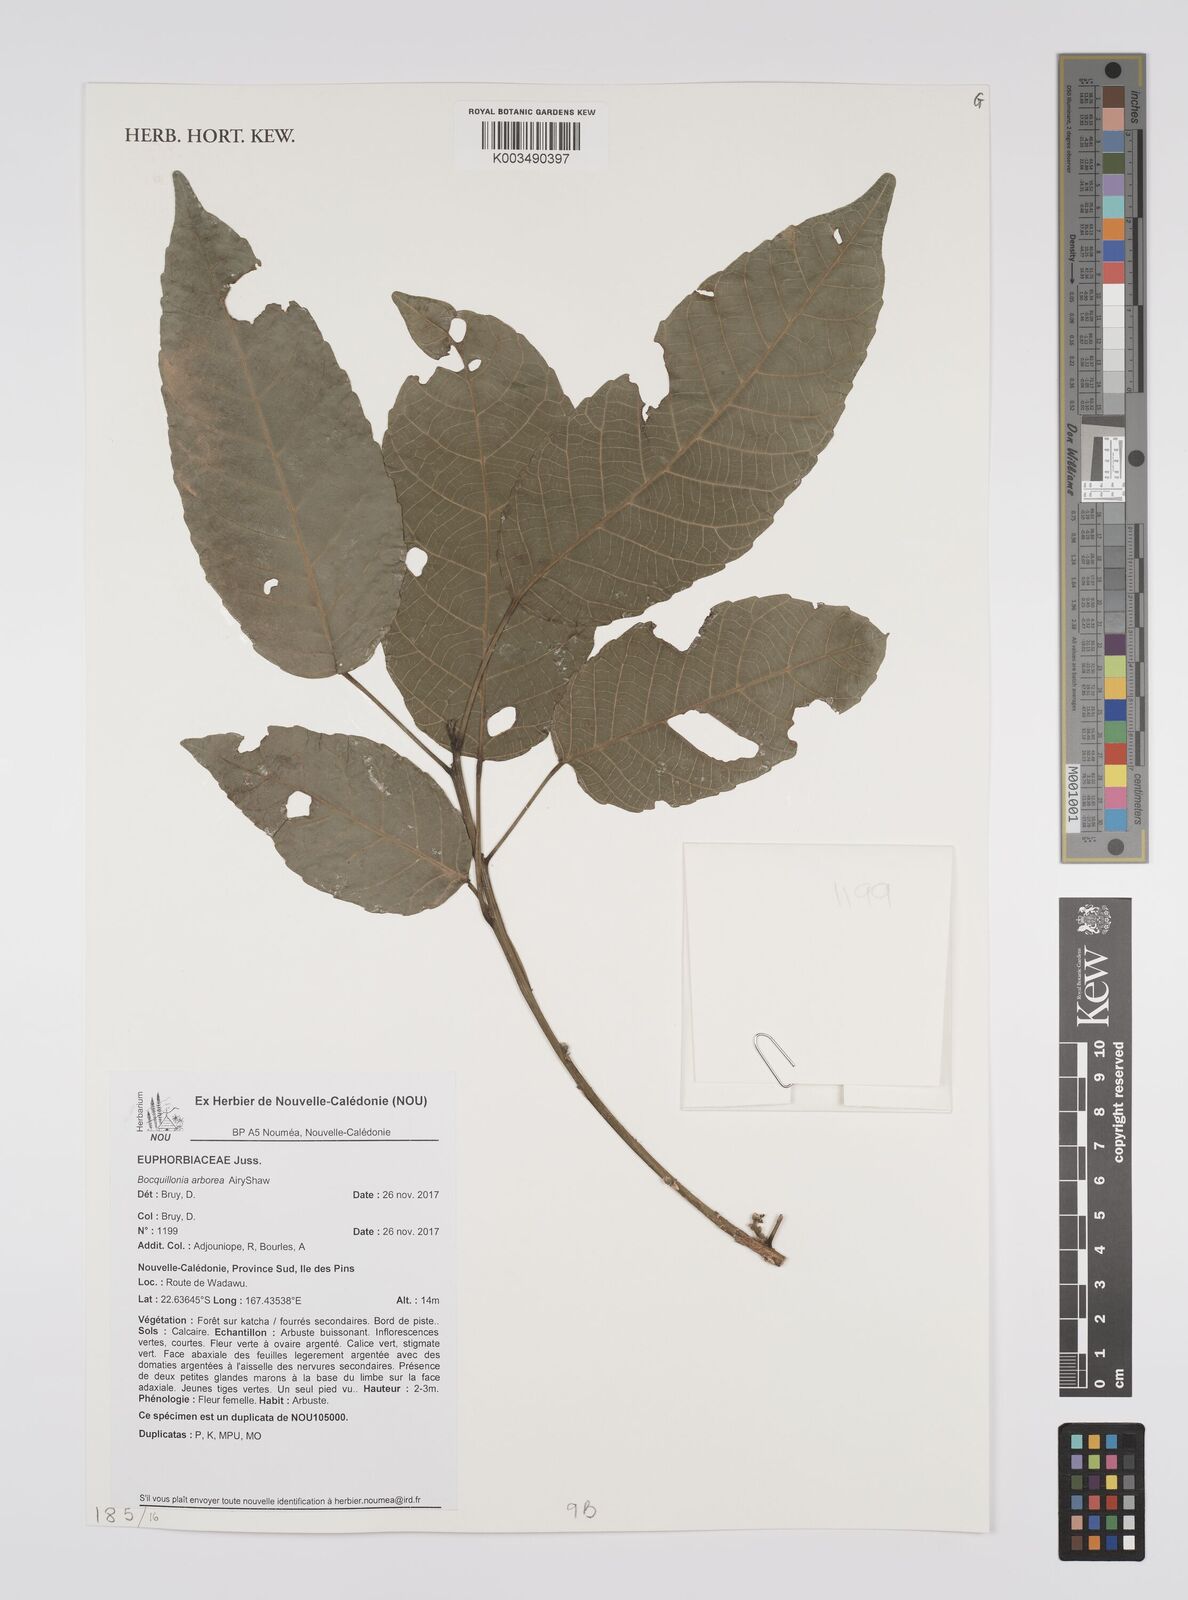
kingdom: Plantae
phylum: Tracheophyta
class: Magnoliopsida
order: Malpighiales
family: Euphorbiaceae
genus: Bocquillonia
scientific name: Bocquillonia arborea
